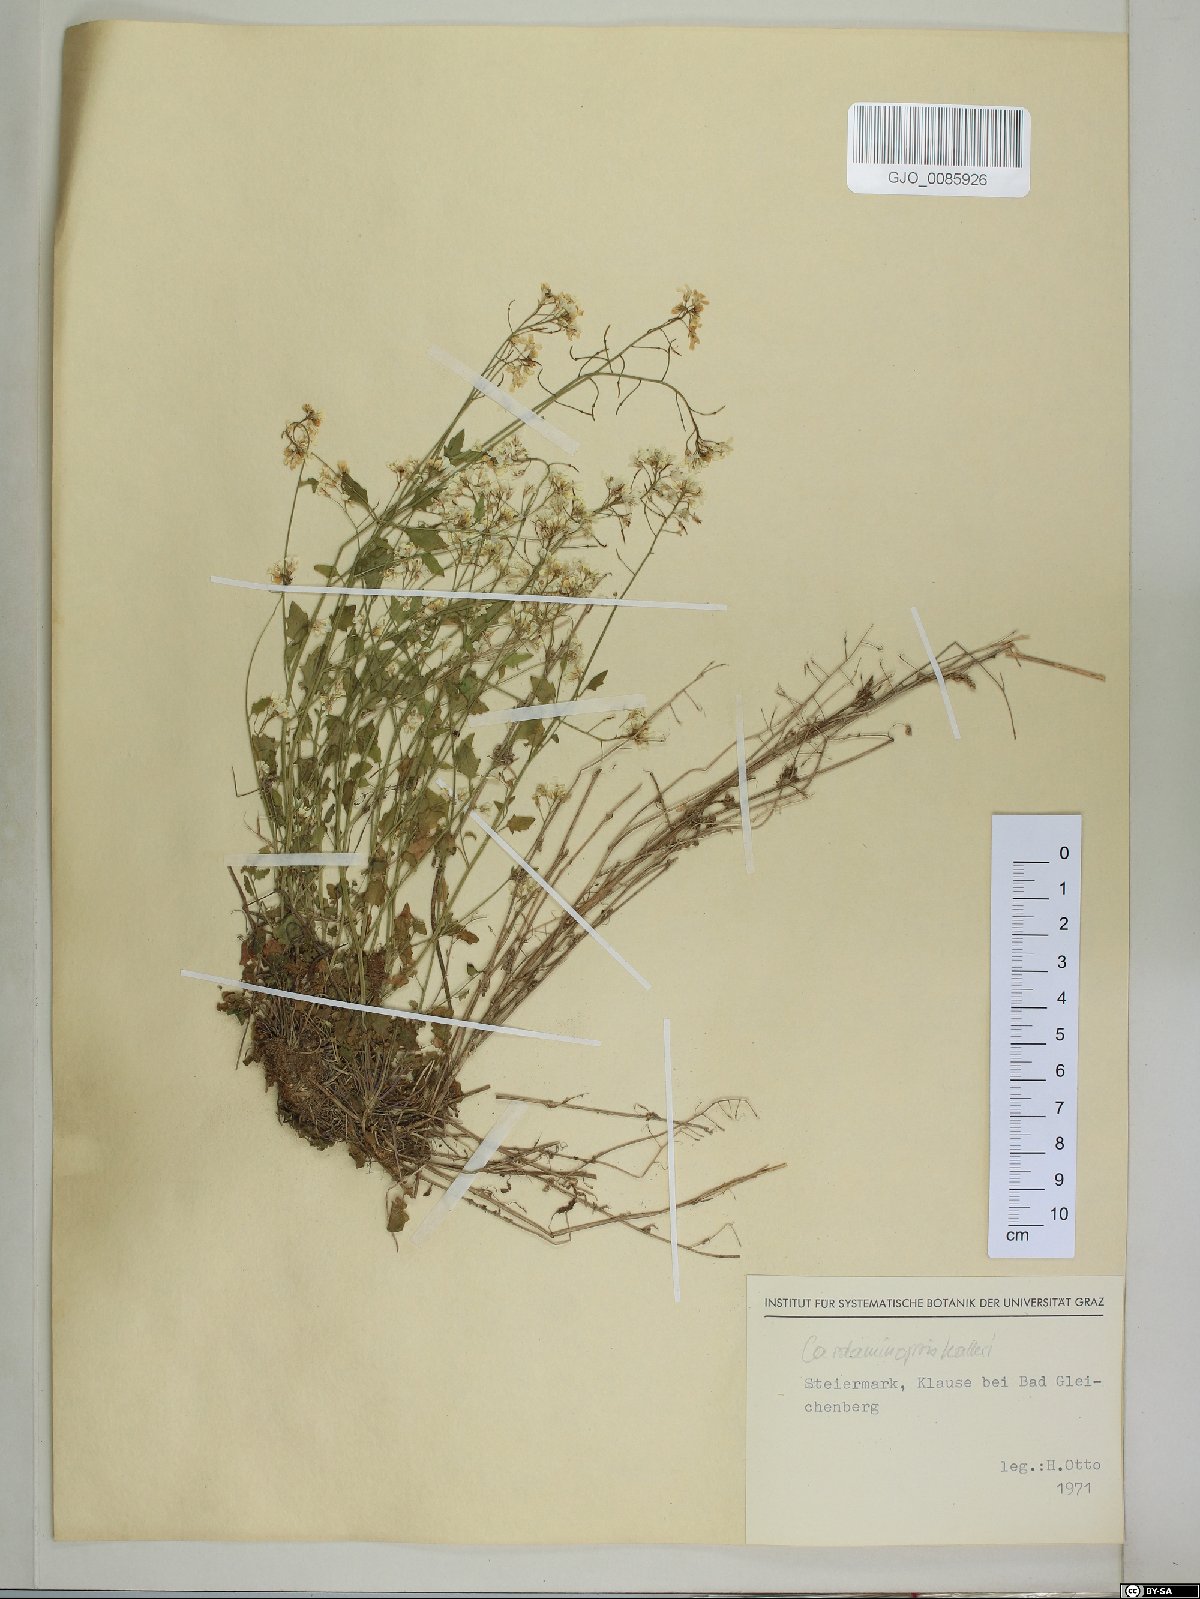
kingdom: Plantae
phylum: Tracheophyta
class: Magnoliopsida
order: Brassicales
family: Brassicaceae
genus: Arabidopsis
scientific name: Arabidopsis halleri
